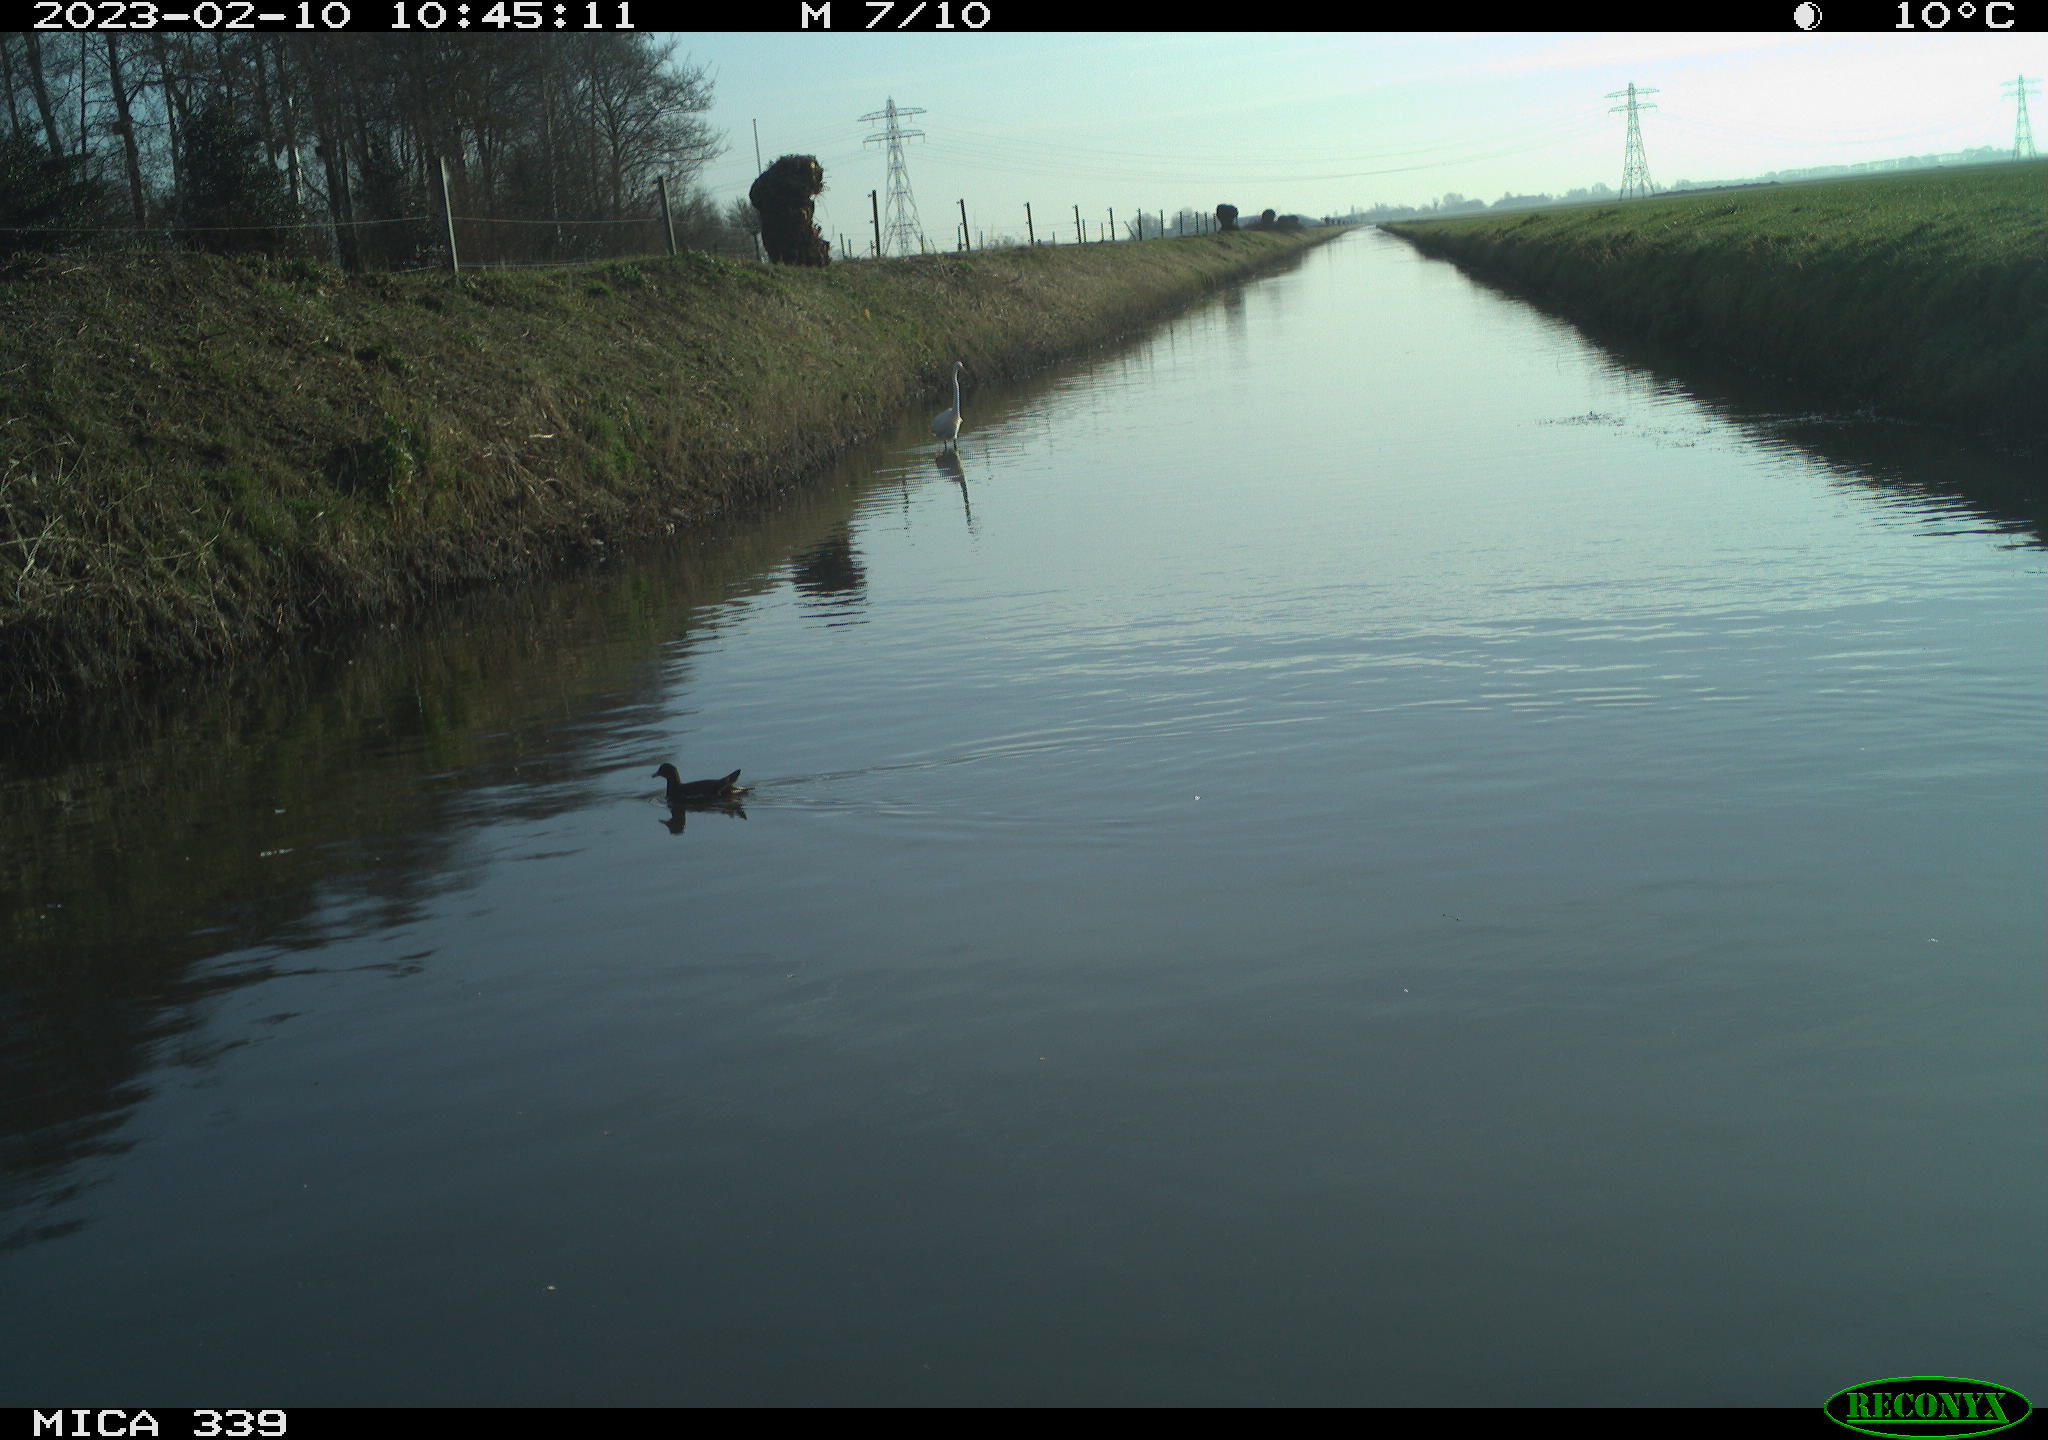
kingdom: Animalia
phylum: Chordata
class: Aves
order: Pelecaniformes
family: Ardeidae
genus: Ardea
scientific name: Ardea alba
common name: Great egret
